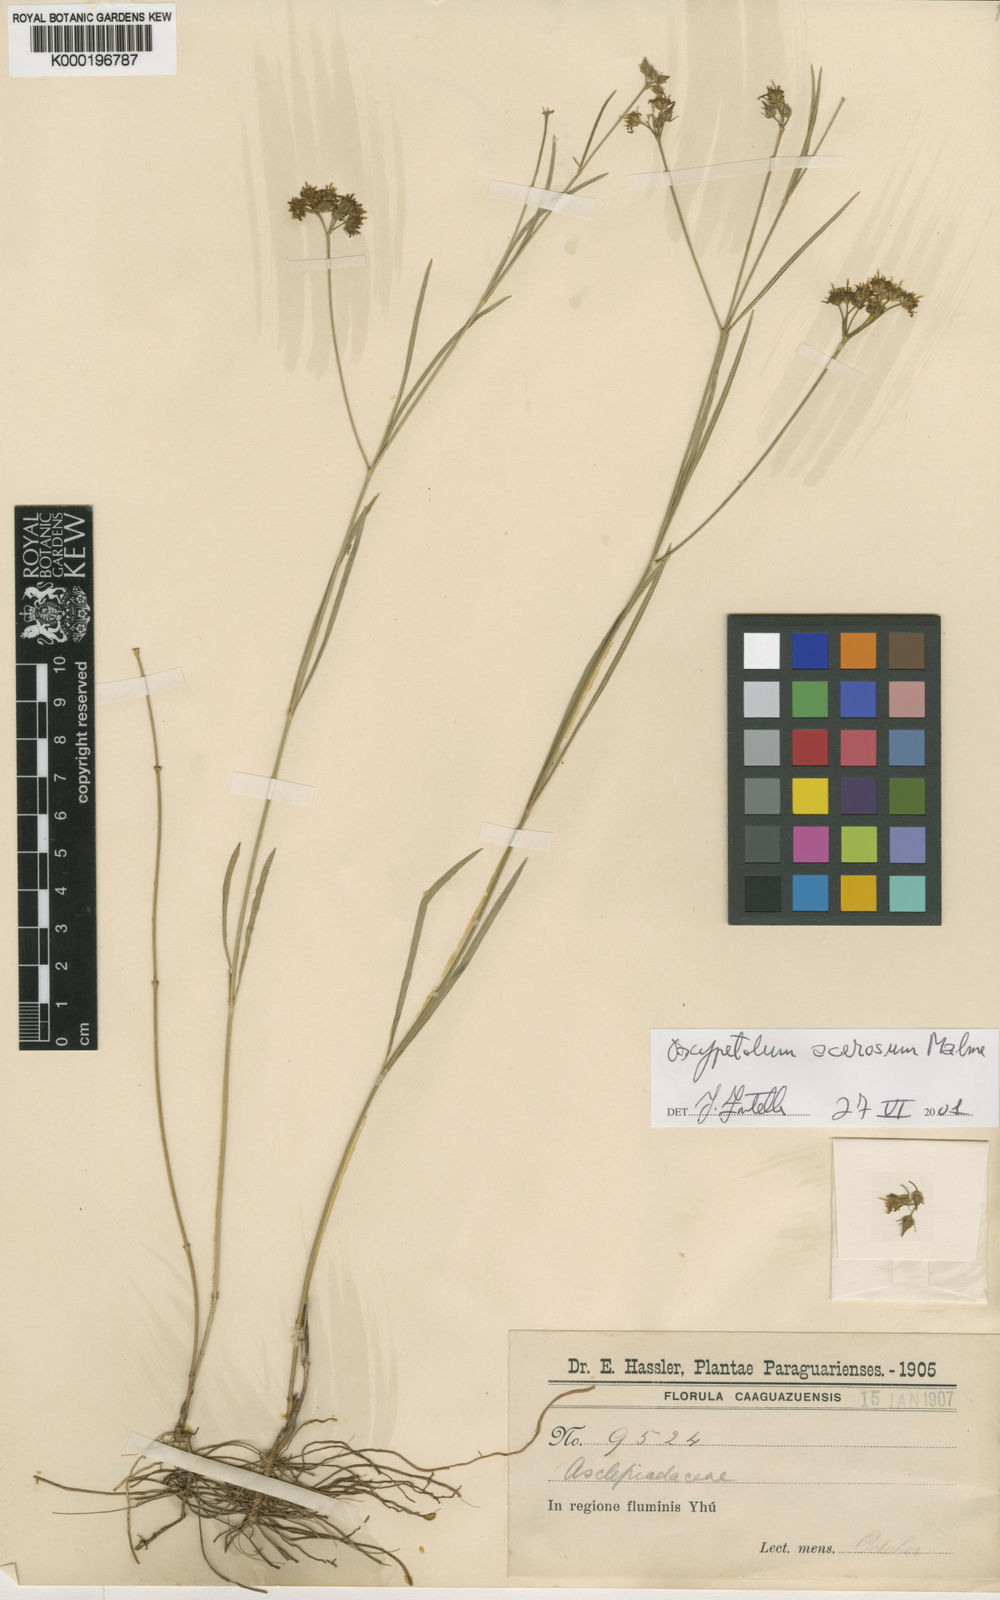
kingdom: Plantae
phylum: Tracheophyta
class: Magnoliopsida
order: Gentianales
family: Apocynaceae
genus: Oxypetalum
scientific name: Oxypetalum acerosum
